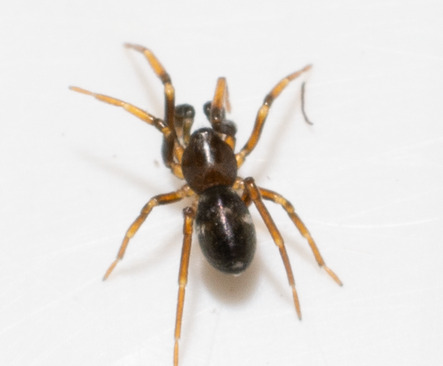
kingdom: Animalia
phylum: Arthropoda
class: Arachnida
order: Araneae
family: Phrurolithidae
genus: Phrurolithus
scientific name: Phrurolithus festivus
